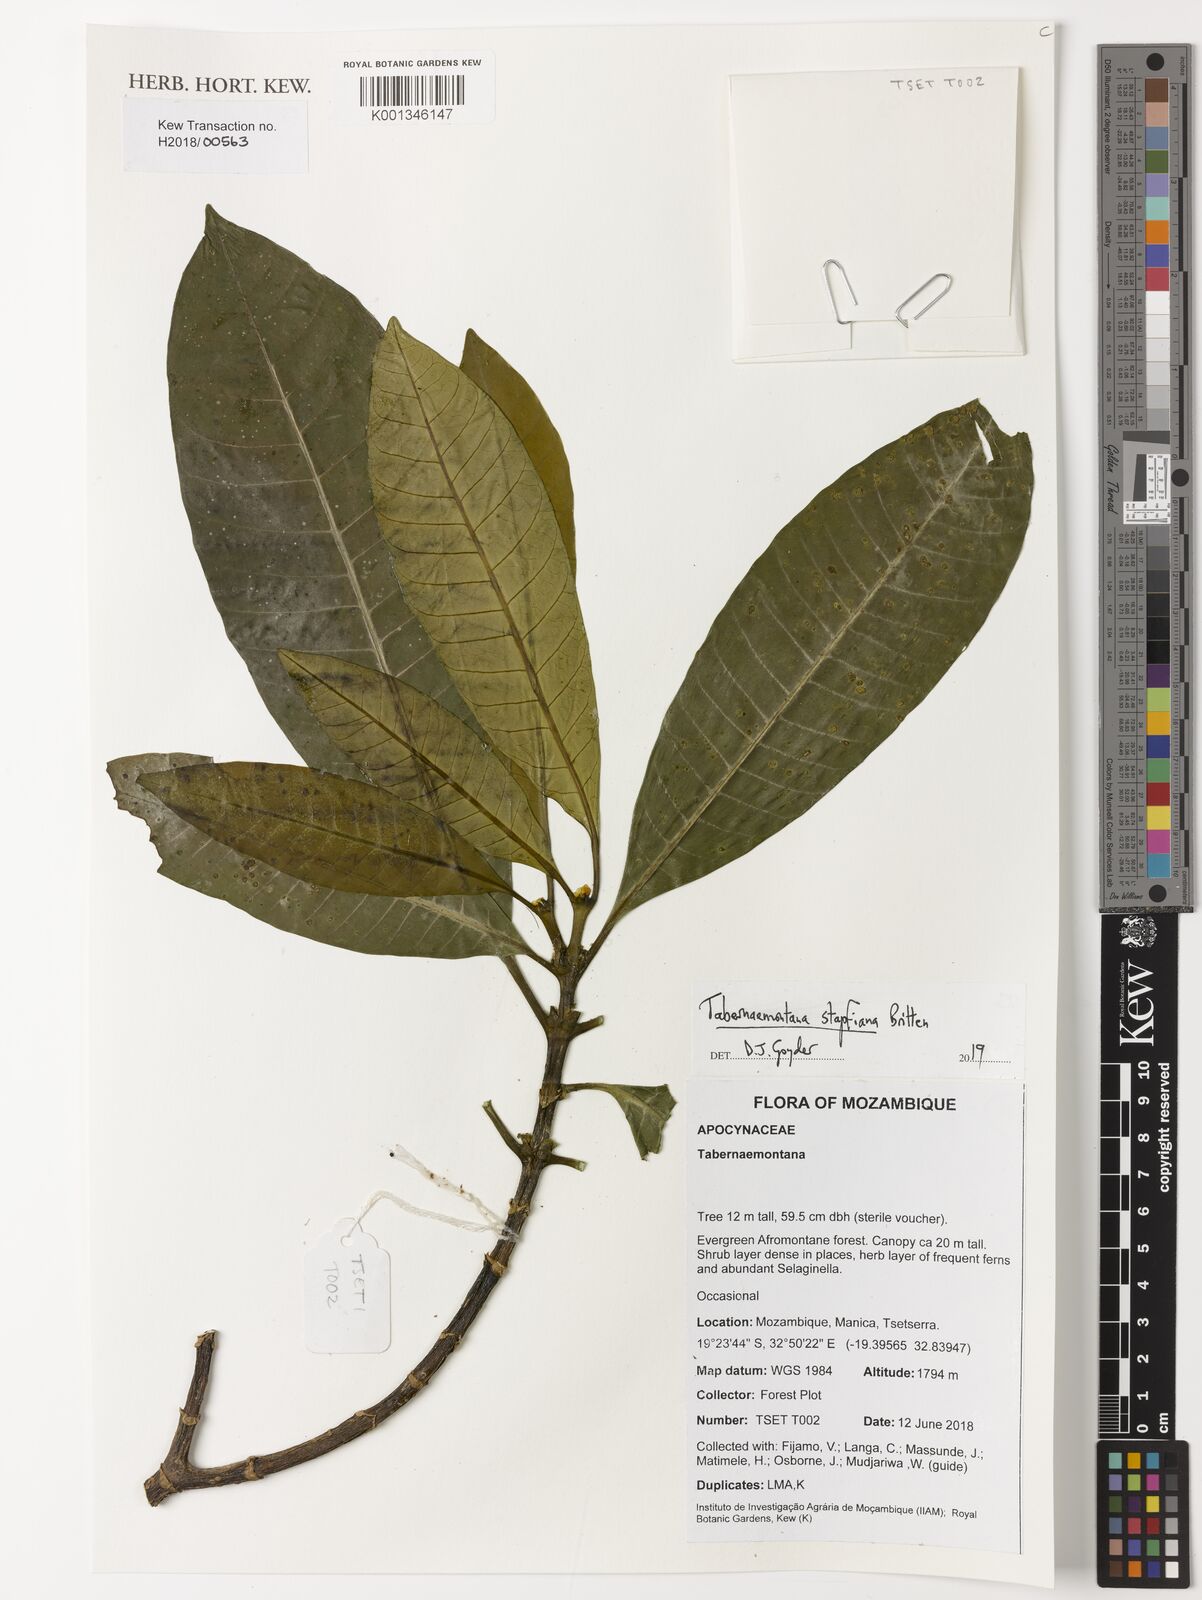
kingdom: Plantae
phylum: Tracheophyta
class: Magnoliopsida
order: Gentianales
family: Apocynaceae
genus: Tabernaemontana
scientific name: Tabernaemontana stapfiana
